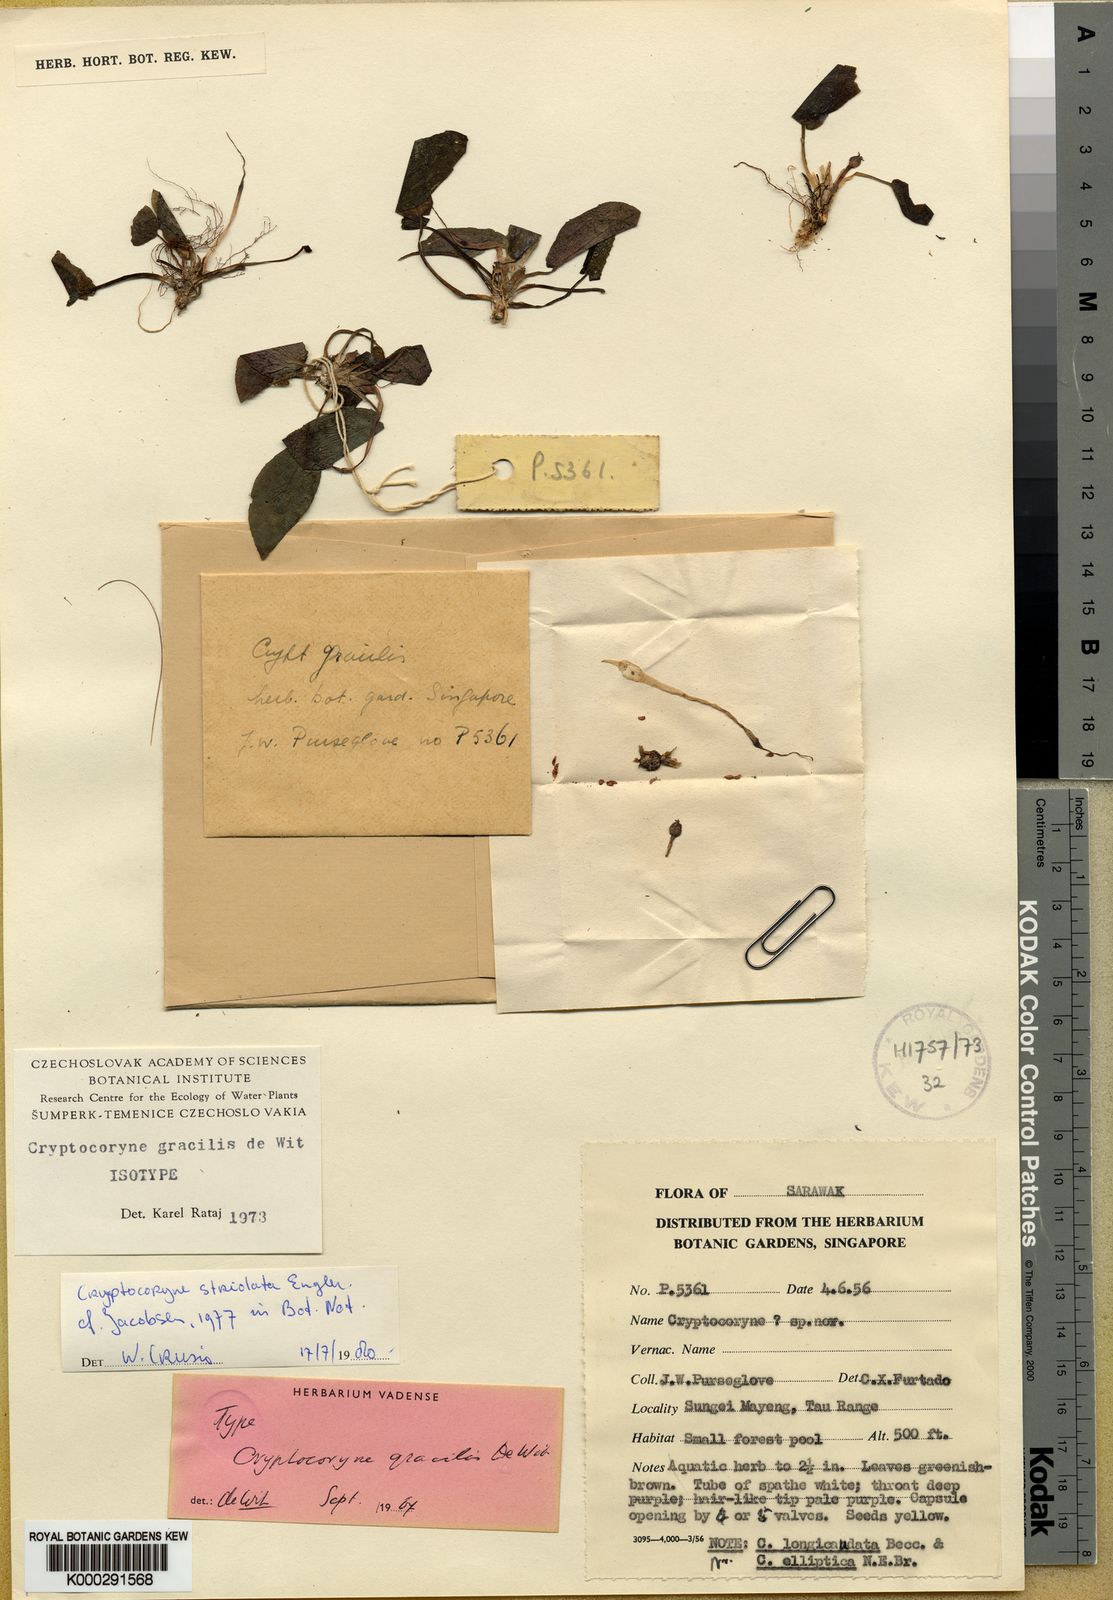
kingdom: Plantae
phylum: Tracheophyta
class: Liliopsida
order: Alismatales
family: Araceae
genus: Cryptocoryne
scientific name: Cryptocoryne striolata
